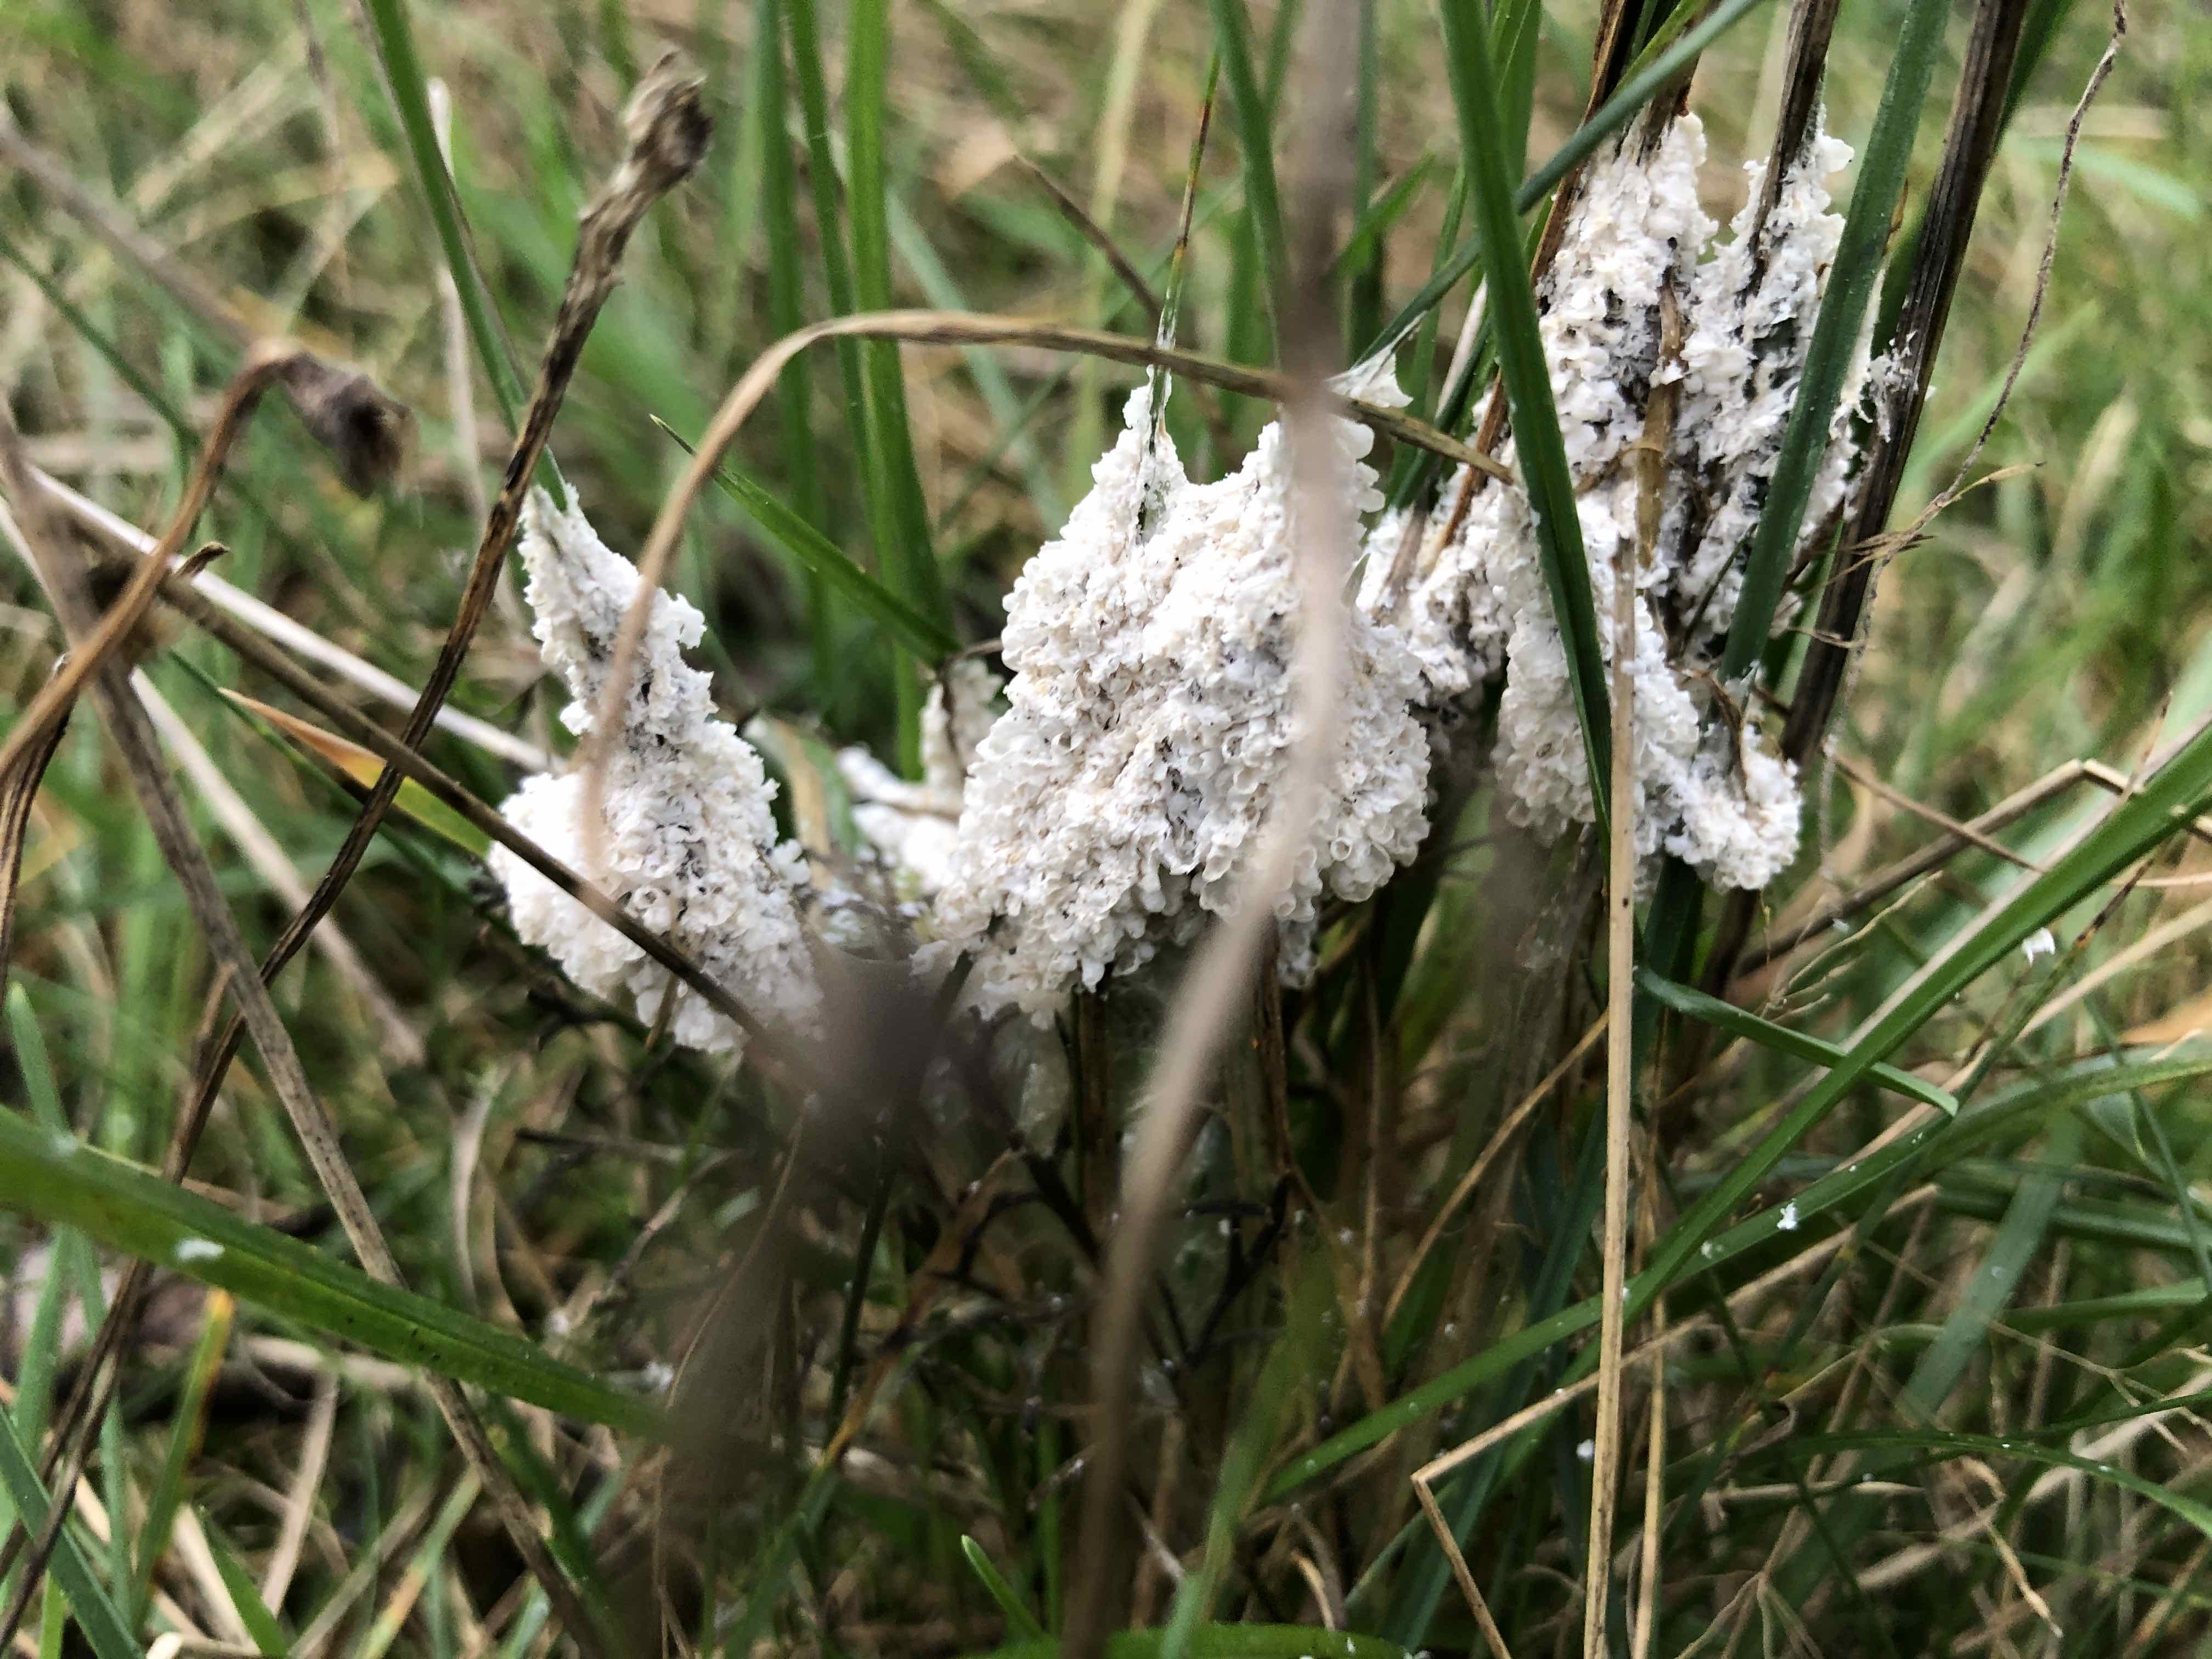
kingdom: Protozoa
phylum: Mycetozoa
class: Myxomycetes
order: Physarales
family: Physaraceae
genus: Didymium
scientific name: Didymium
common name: urteskum
